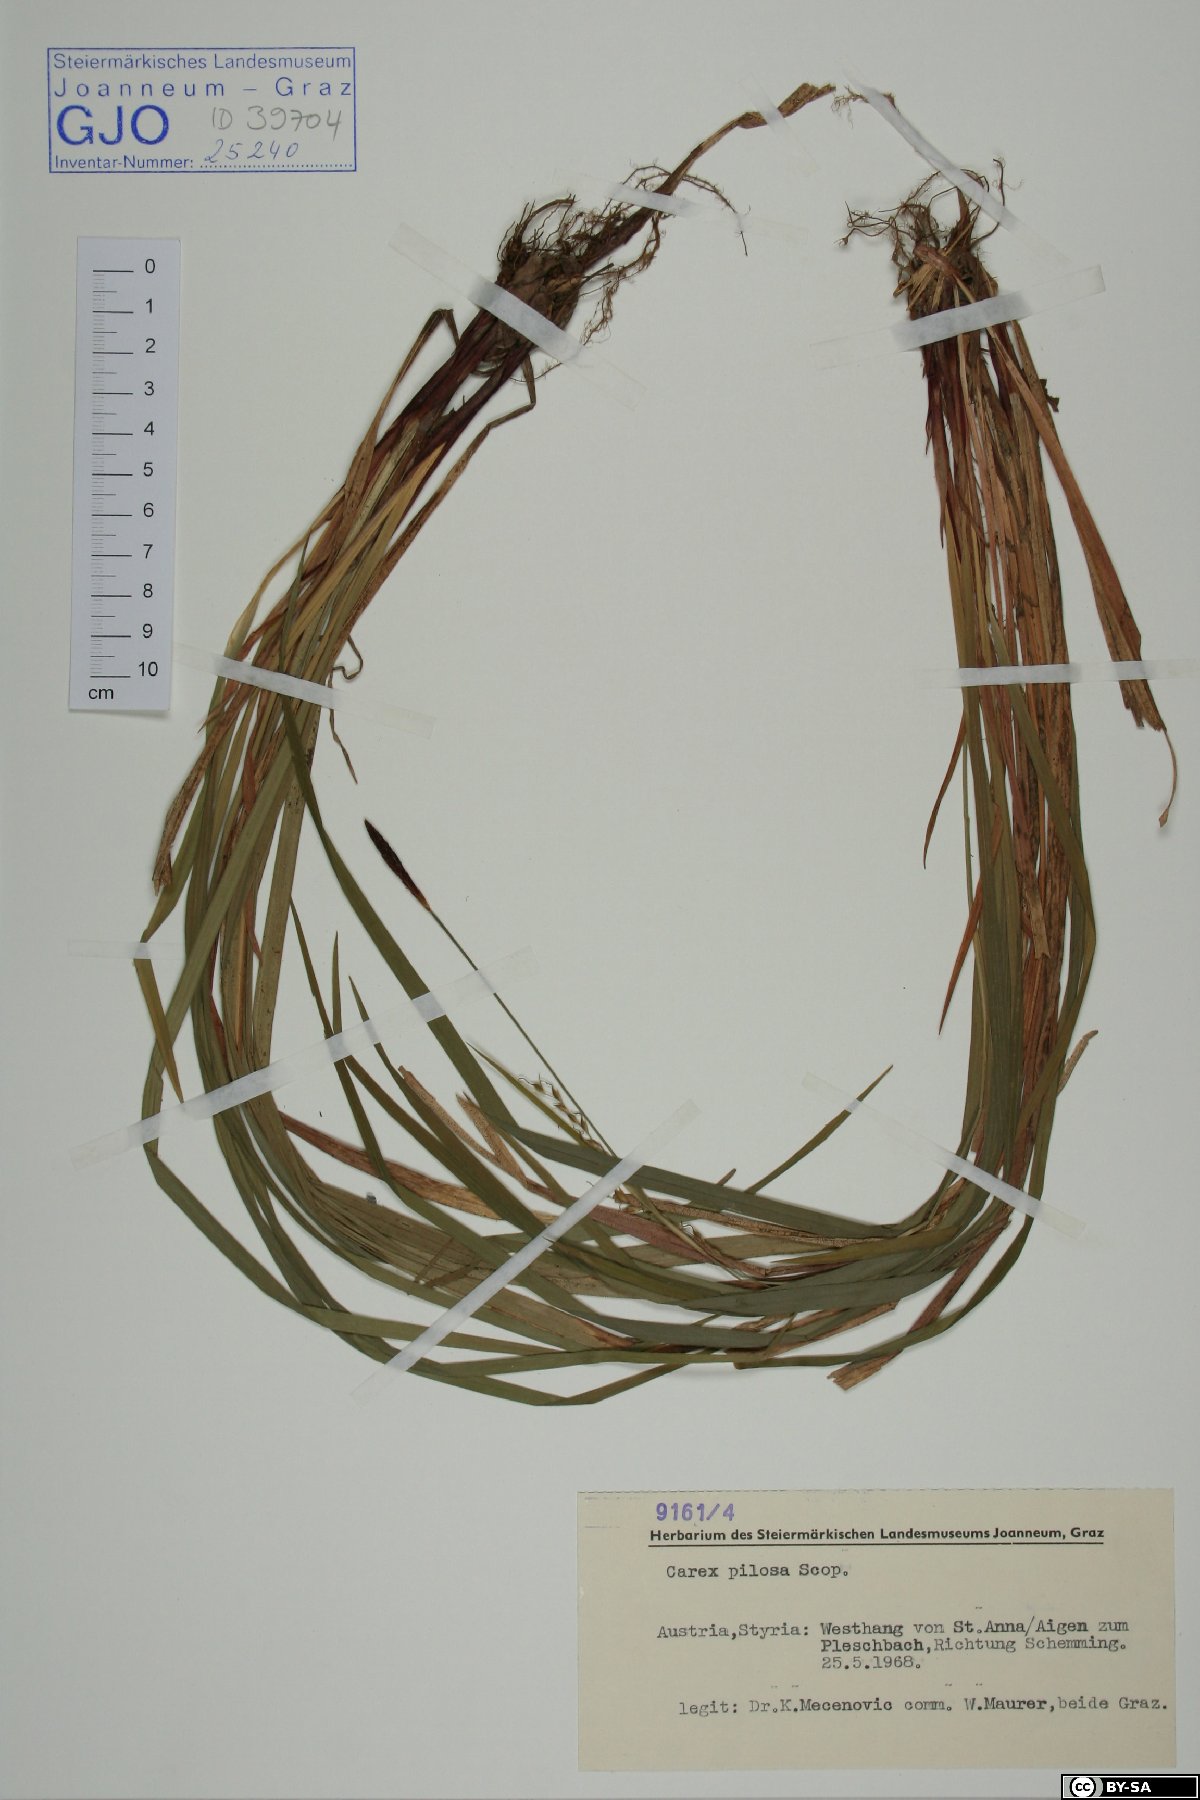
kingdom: Plantae
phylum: Tracheophyta
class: Liliopsida
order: Poales
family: Cyperaceae
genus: Carex
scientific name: Carex pilosa
